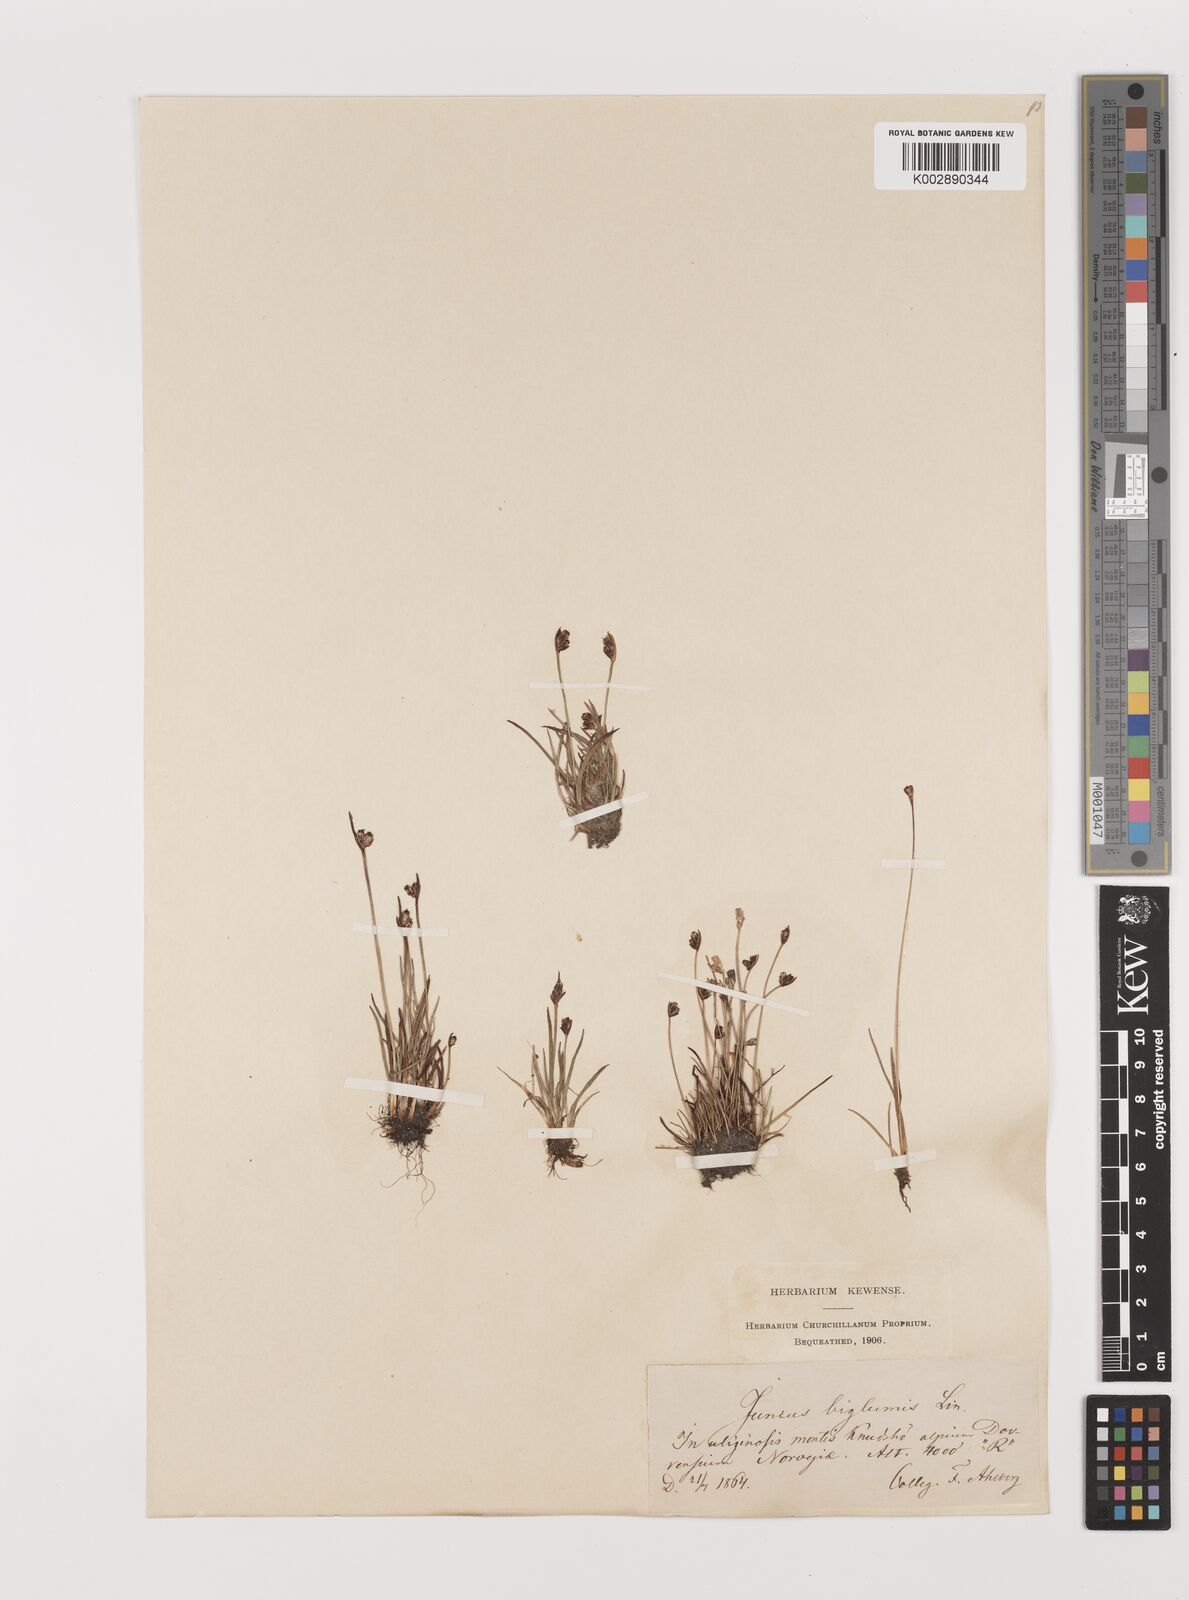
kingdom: Plantae
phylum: Tracheophyta
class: Liliopsida
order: Poales
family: Juncaceae
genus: Juncus
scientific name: Juncus biglumis
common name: Two-flowered rush
